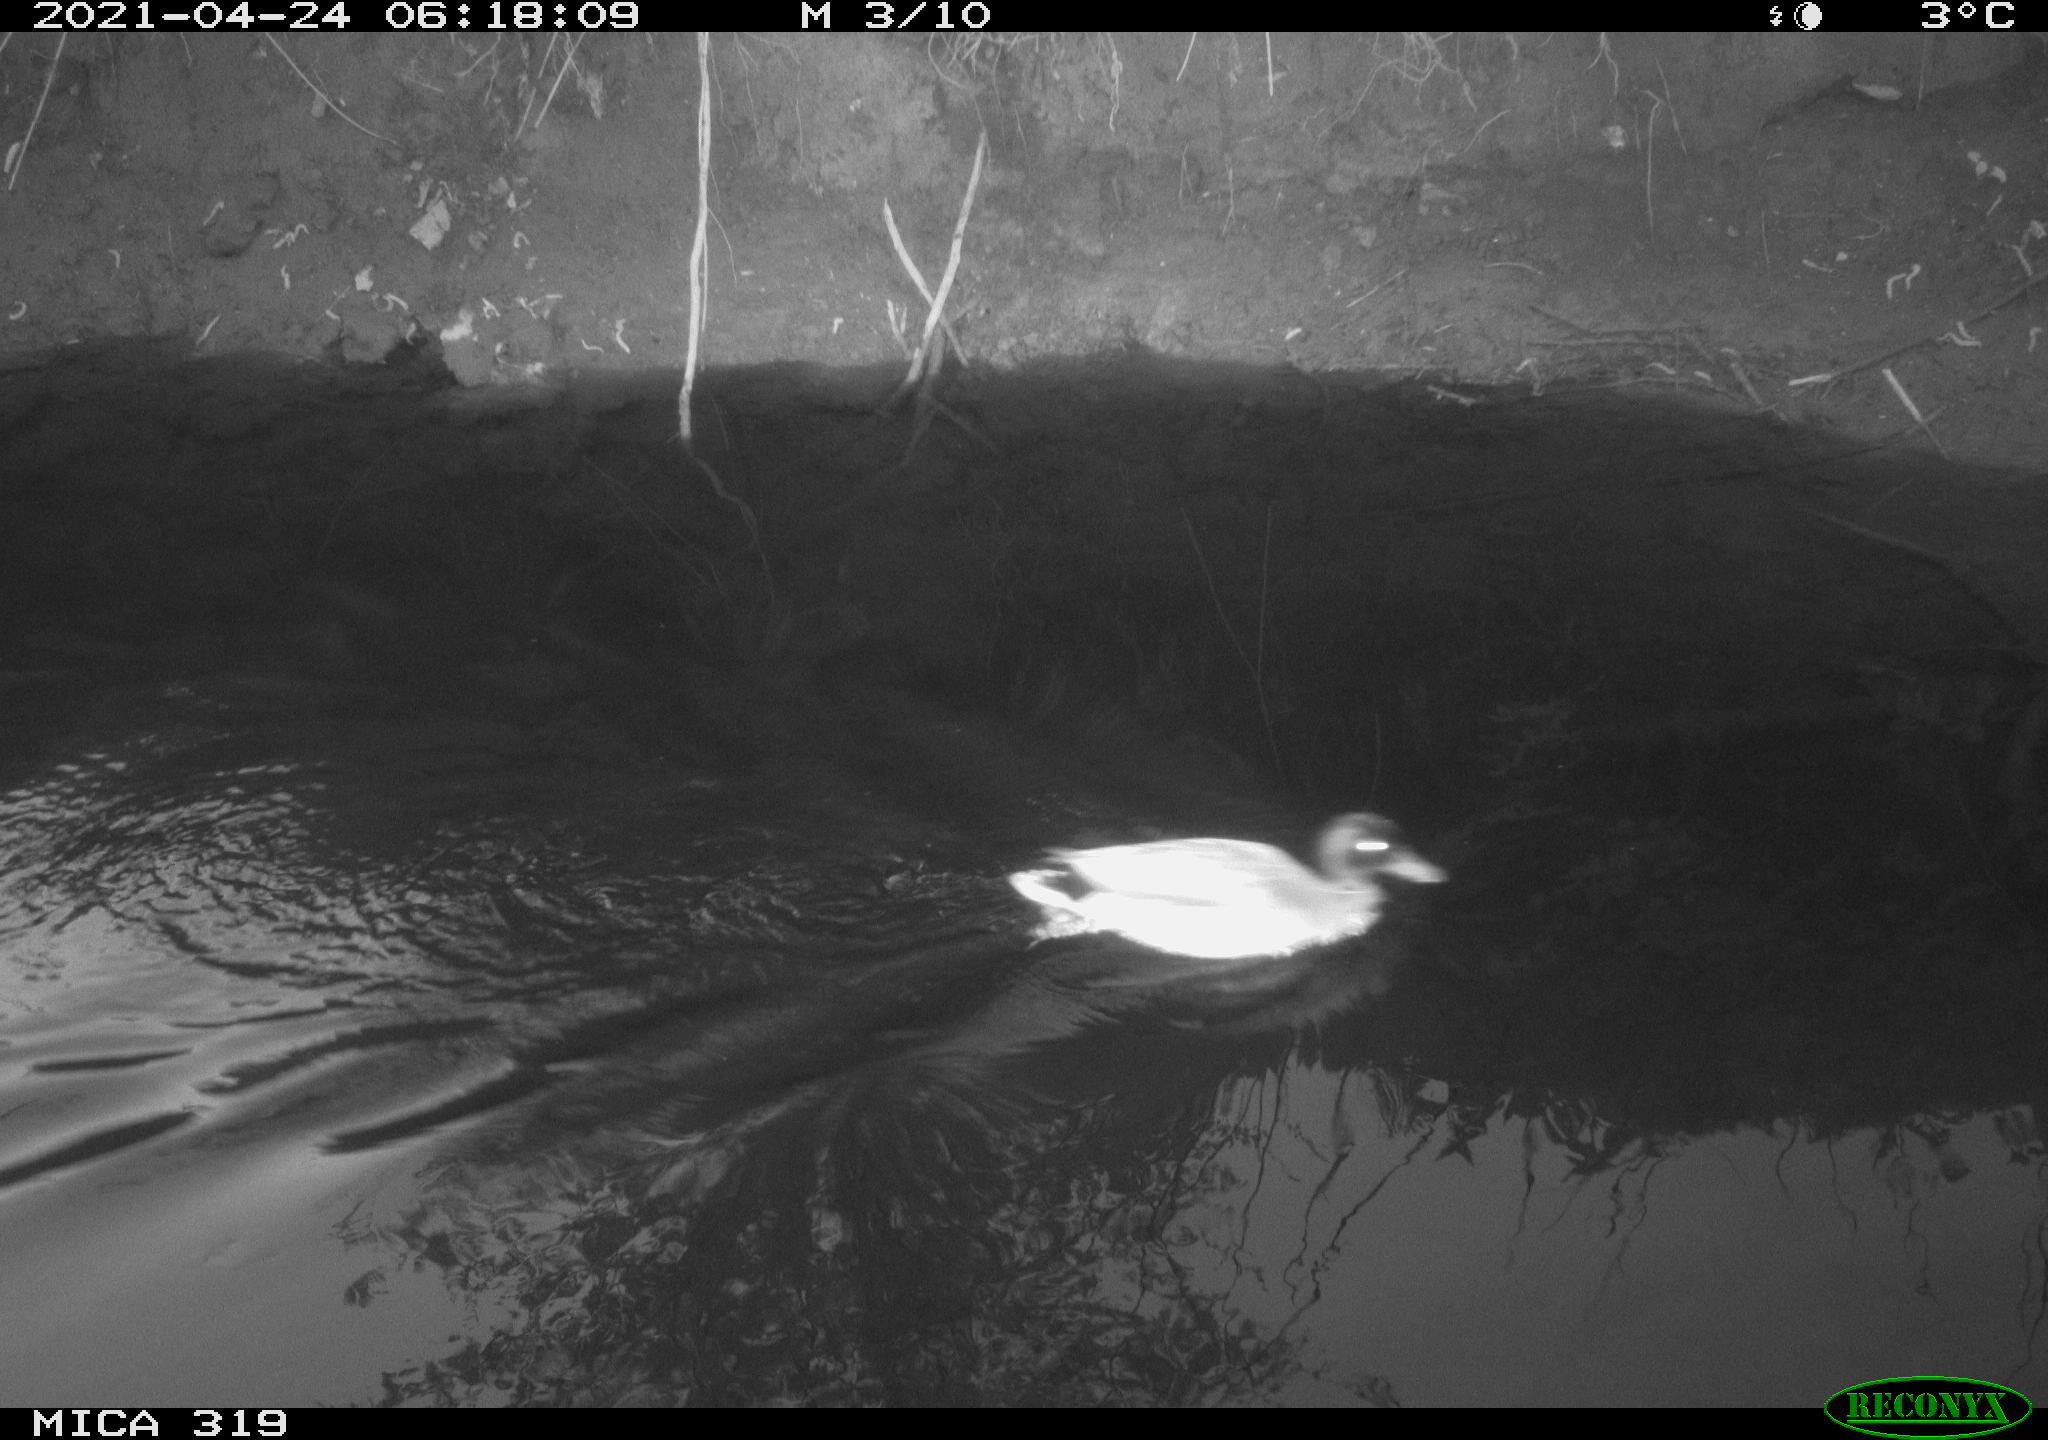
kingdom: Animalia
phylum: Chordata
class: Aves
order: Anseriformes
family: Anatidae
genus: Anas
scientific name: Anas platyrhynchos
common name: Mallard
